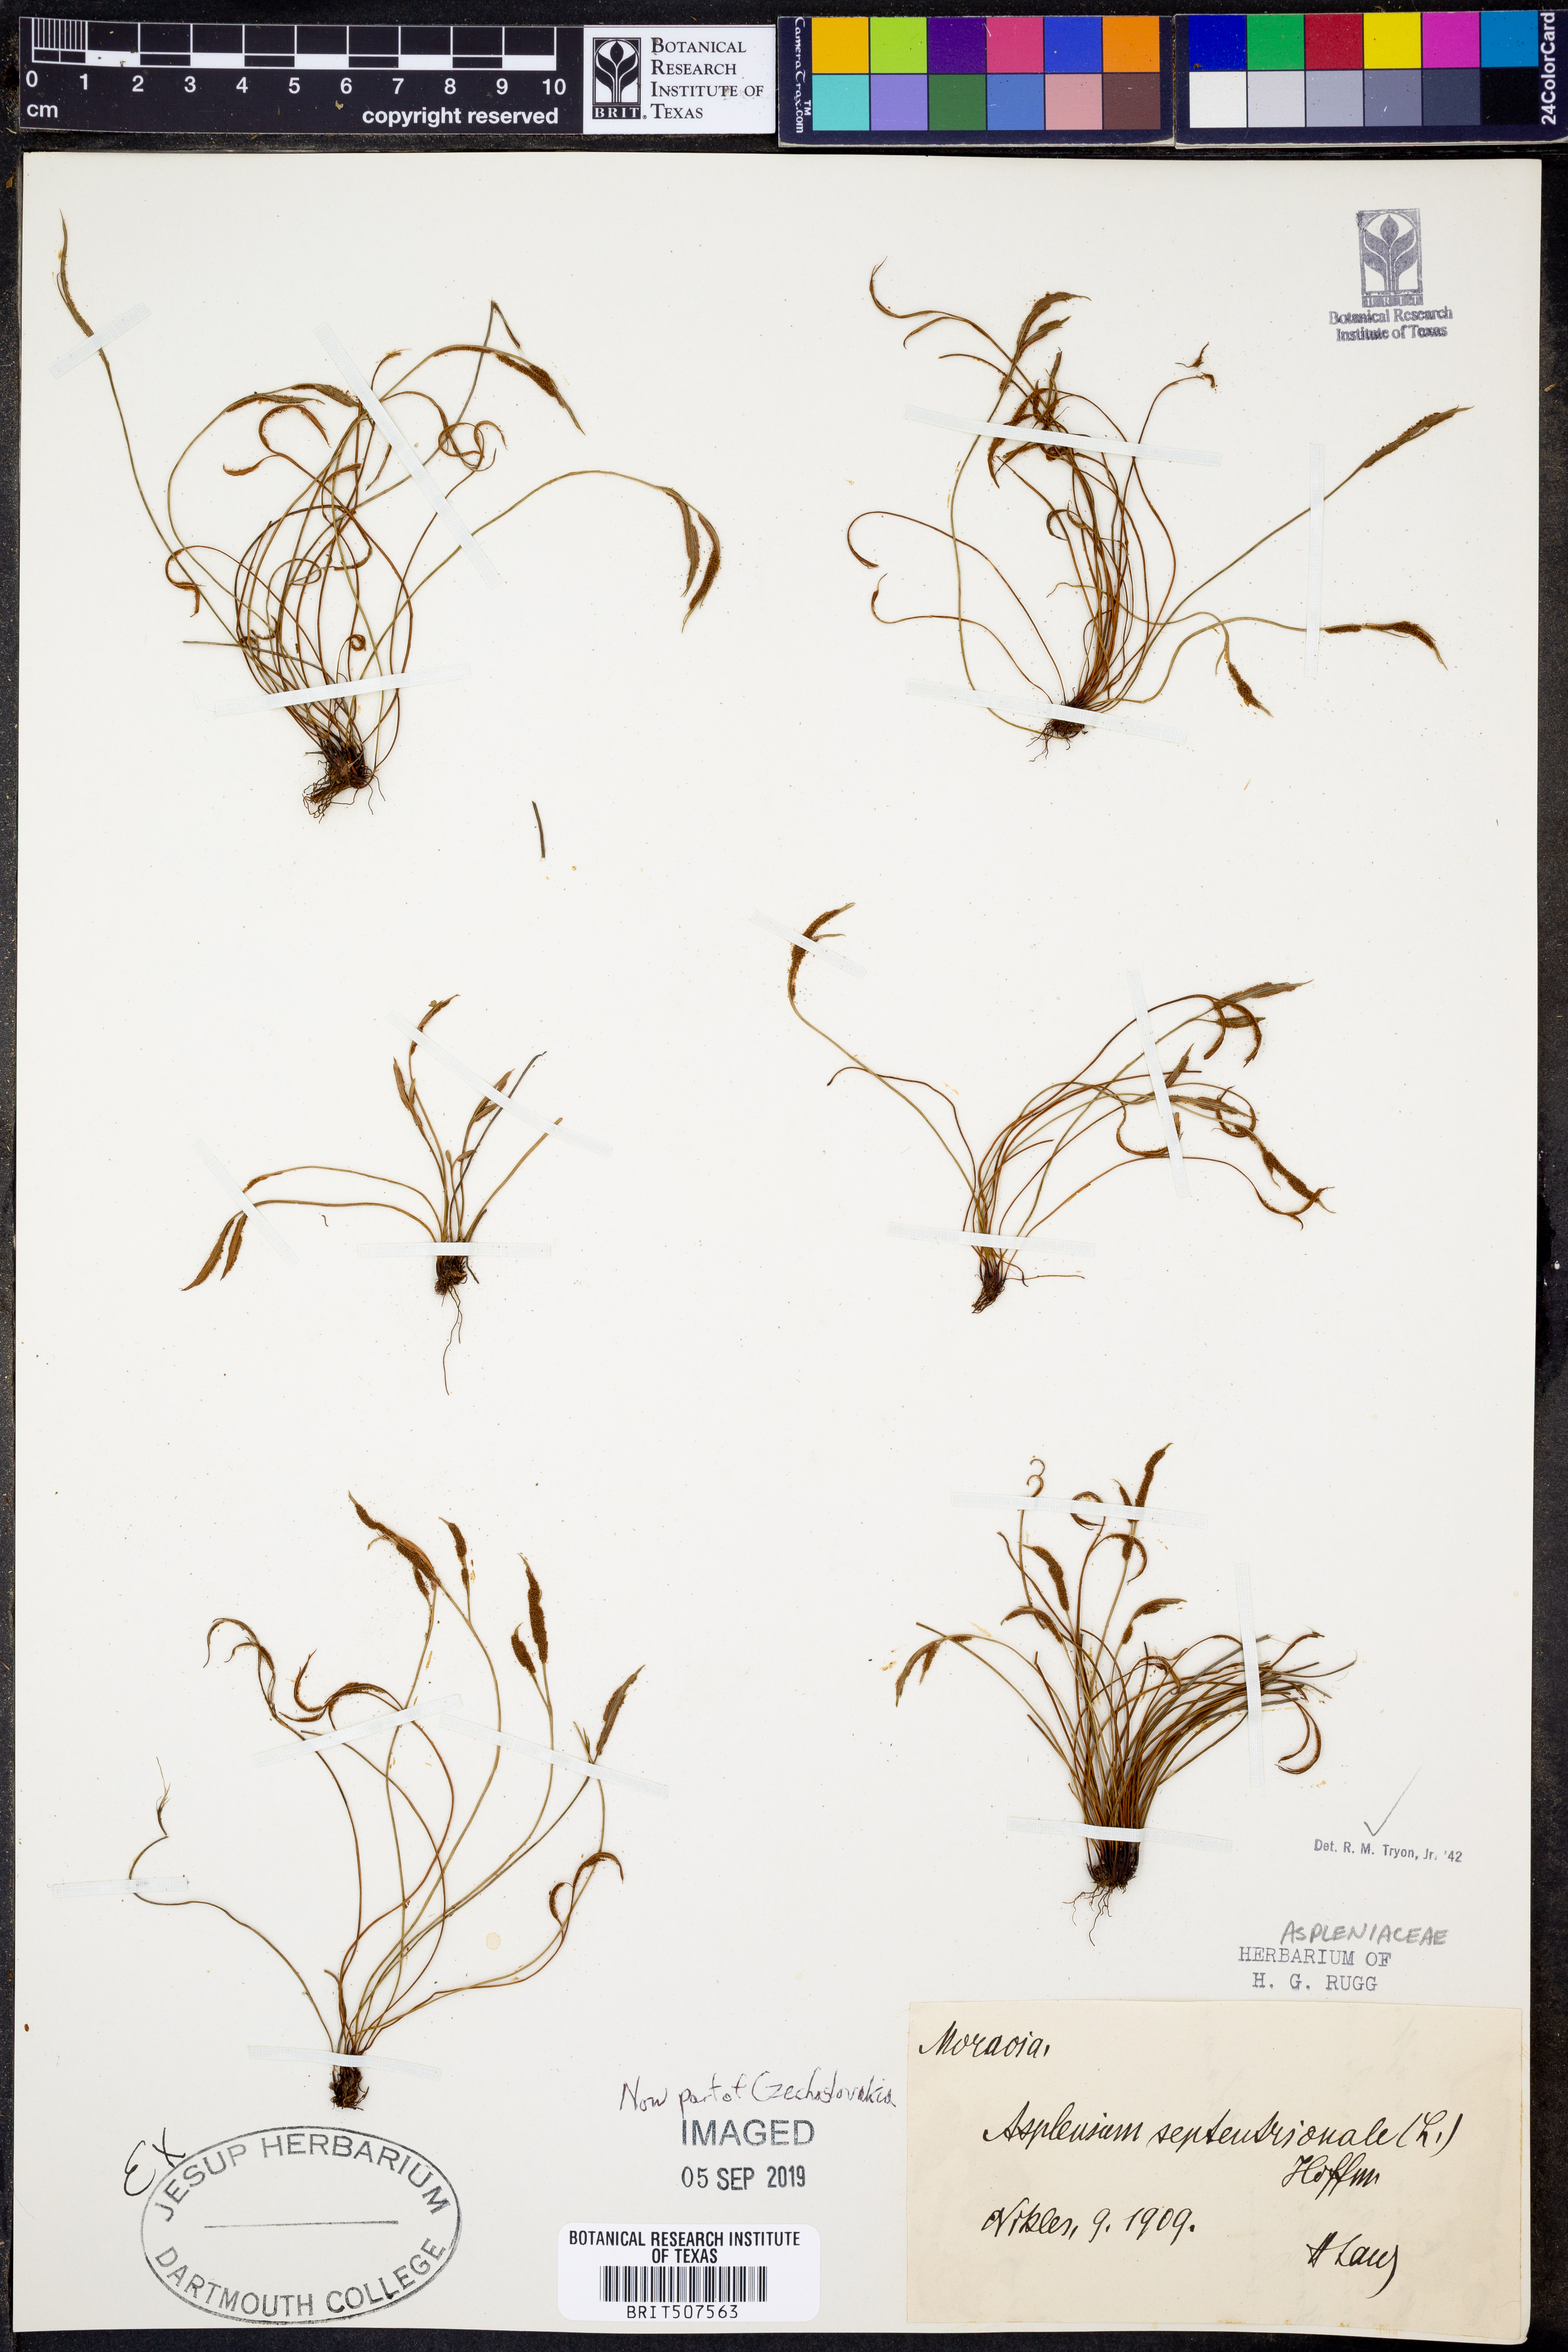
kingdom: Plantae
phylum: Tracheophyta
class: Polypodiopsida
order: Polypodiales
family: Aspleniaceae
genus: Asplenium
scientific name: Asplenium septentrionale
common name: Forked spleenwort
